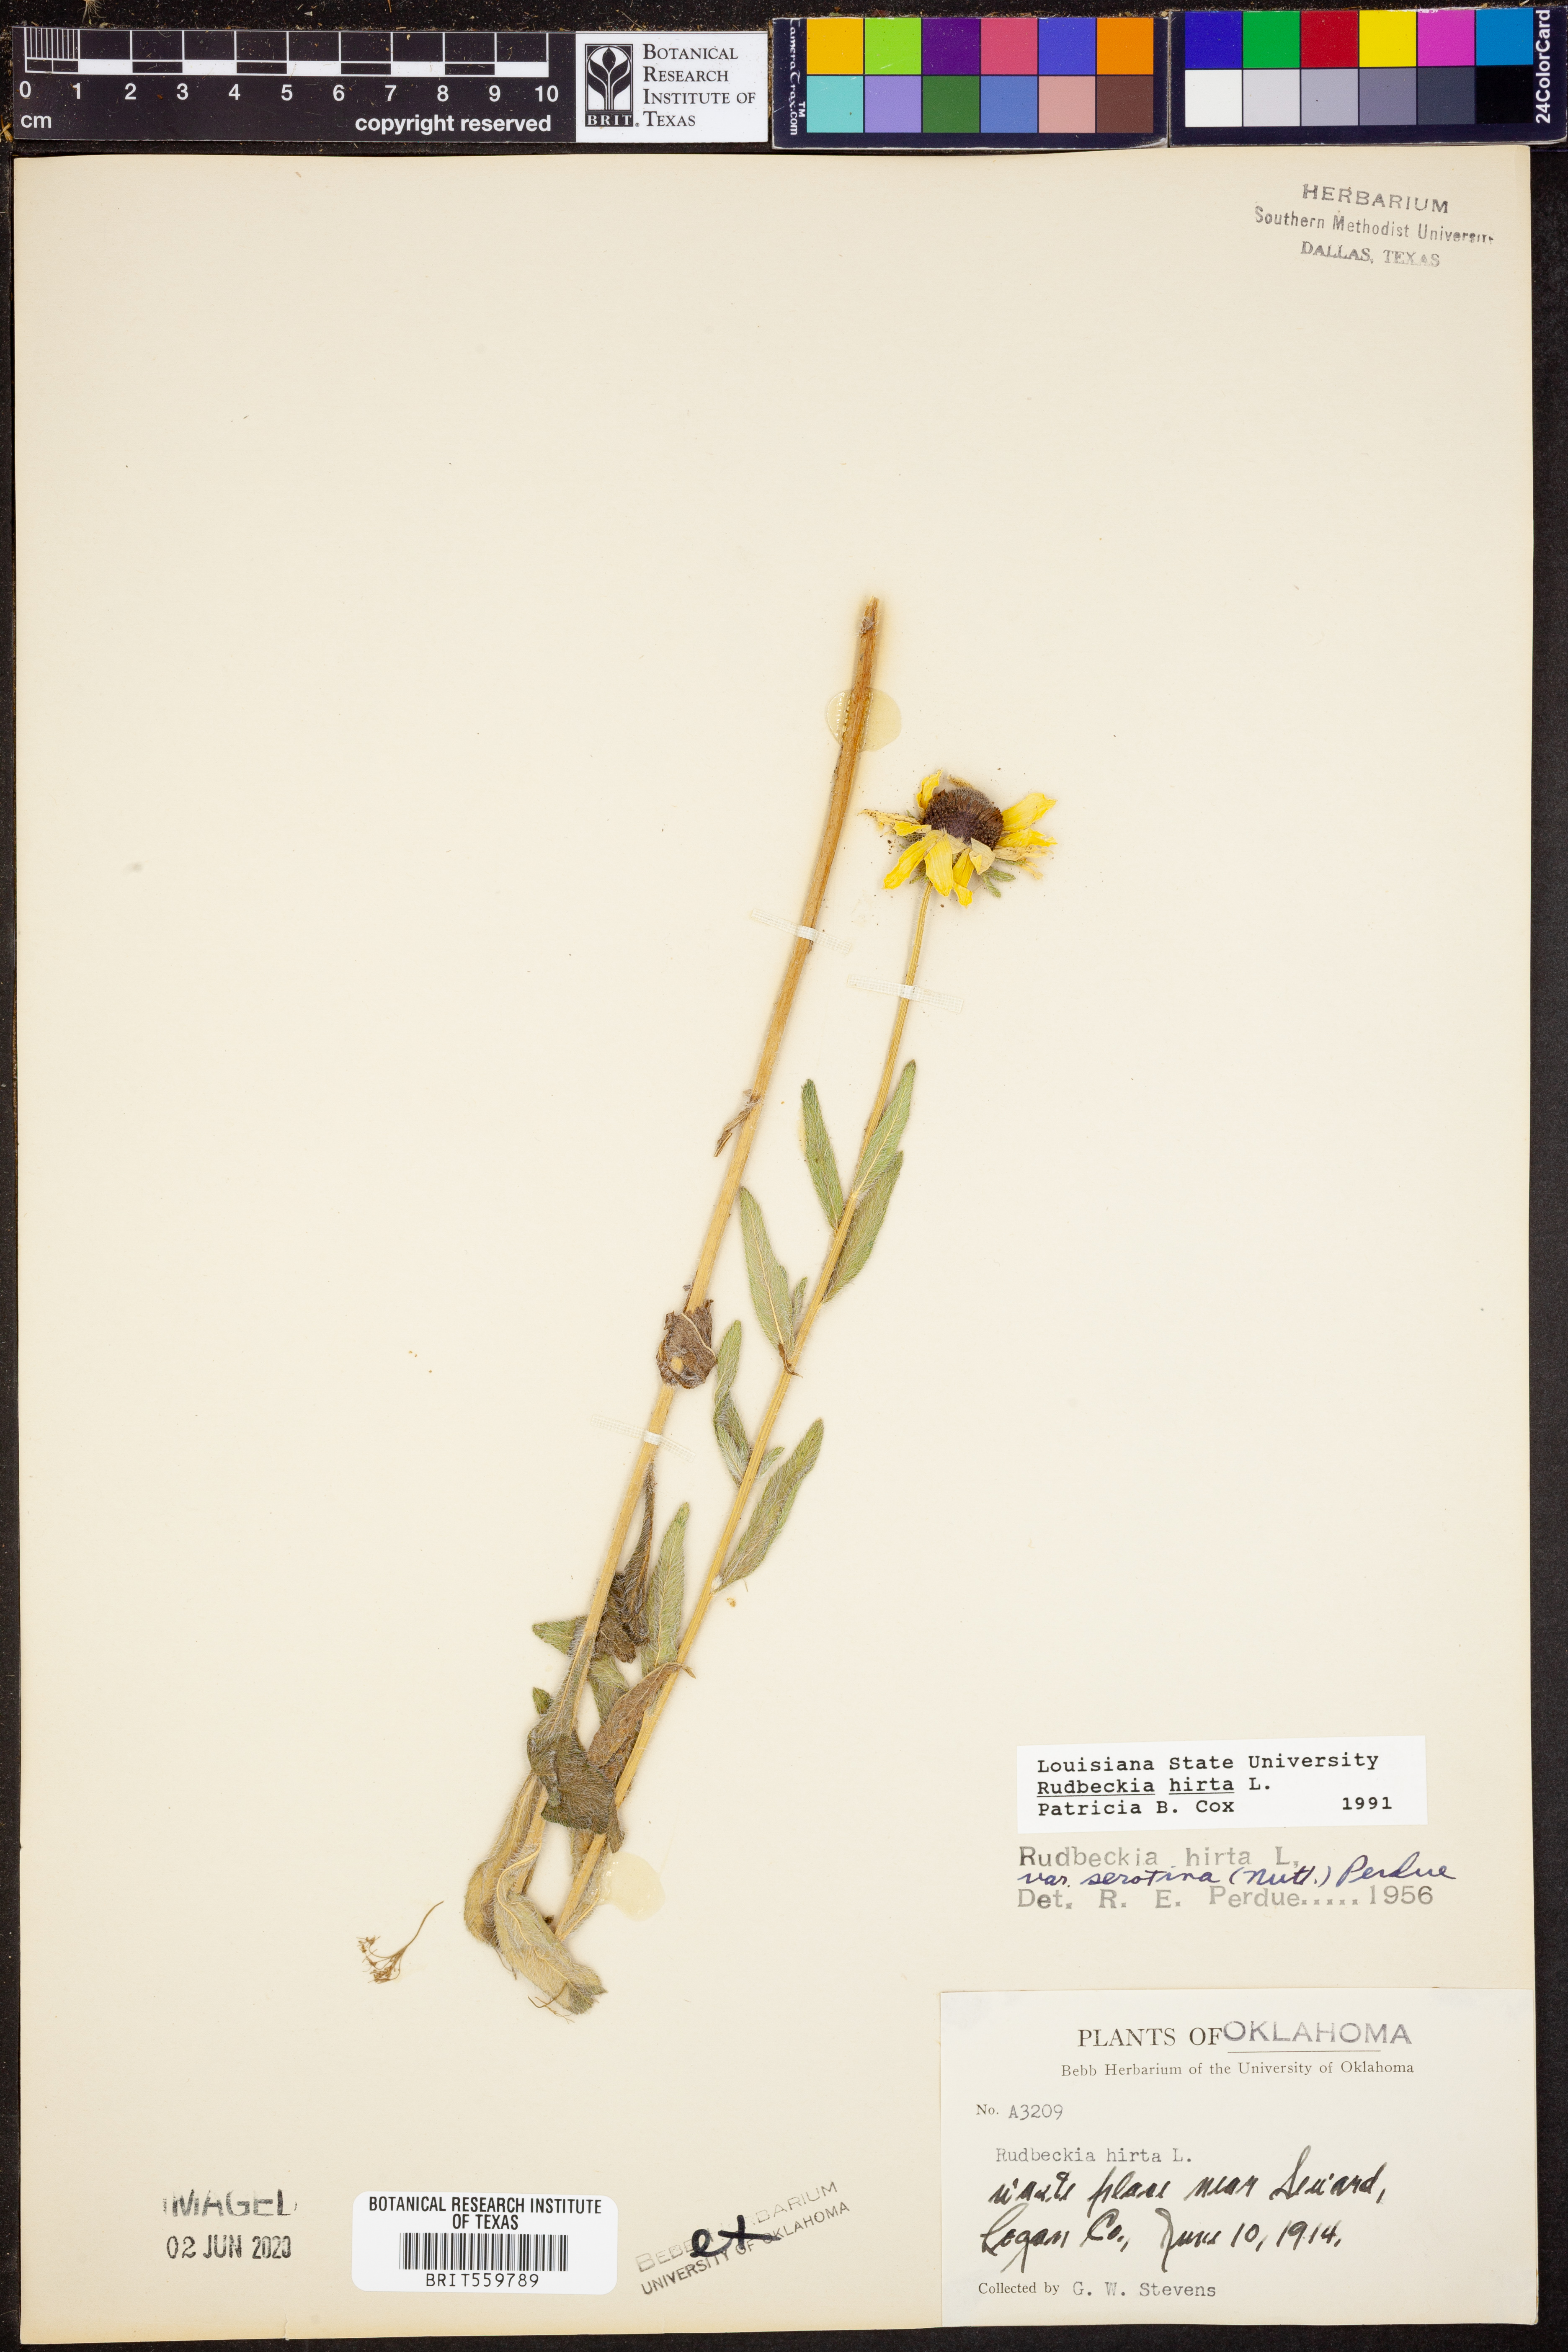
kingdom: Plantae
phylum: Tracheophyta
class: Magnoliopsida
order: Asterales
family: Asteraceae
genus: Rudbeckia
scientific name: Rudbeckia hirta
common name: Black-eyed-susan
